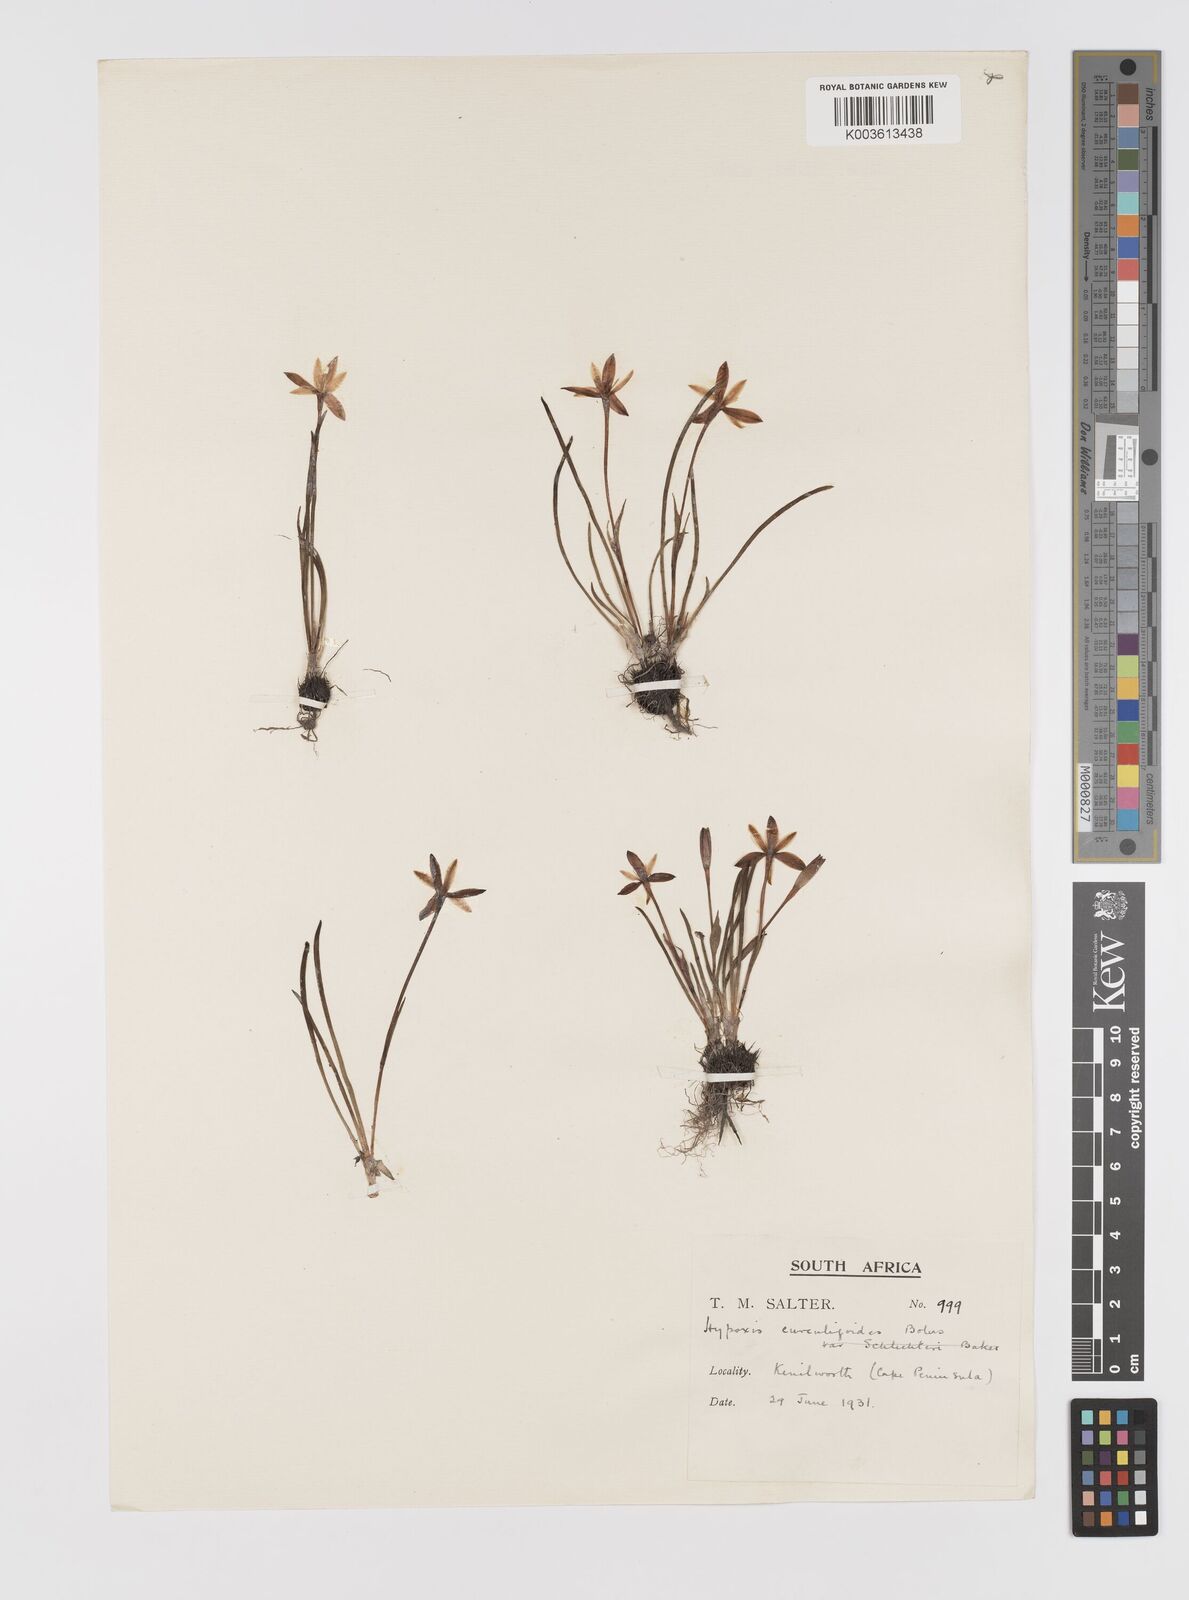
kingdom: Plantae
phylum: Tracheophyta
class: Liliopsida
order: Asparagales
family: Hypoxidaceae
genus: Pauridia
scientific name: Pauridia curculigoides
